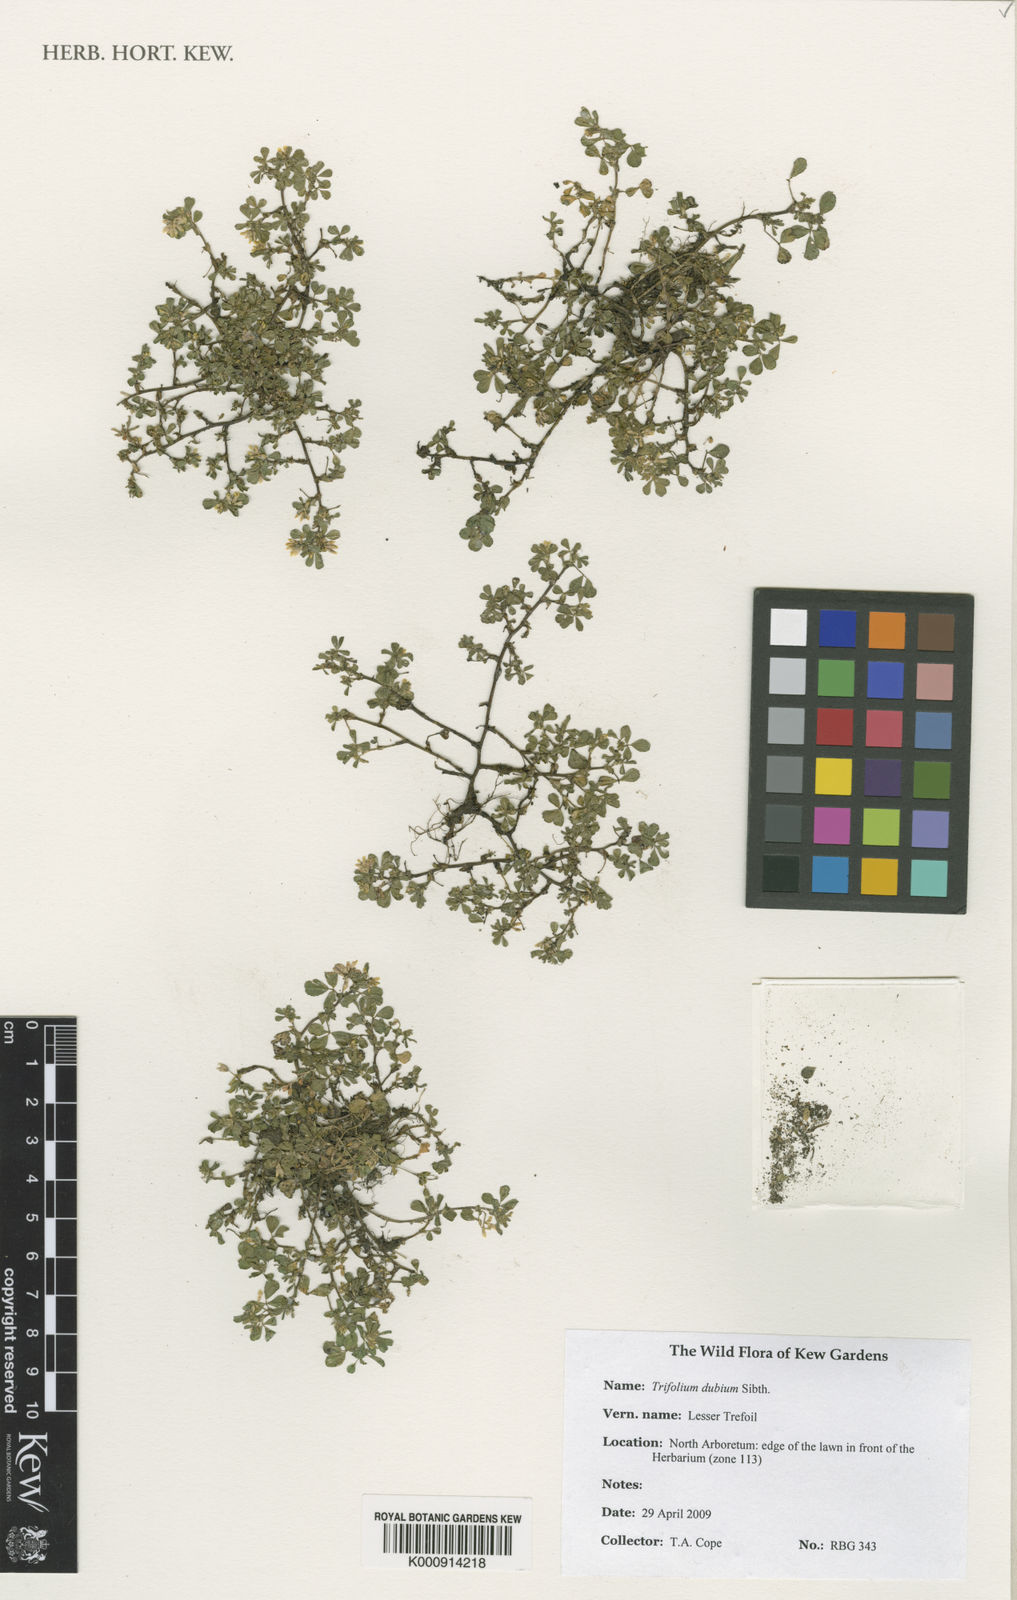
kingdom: Plantae
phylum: Tracheophyta
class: Magnoliopsida
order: Fabales
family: Fabaceae
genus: Trifolium
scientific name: Trifolium dubium
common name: Suckling clover
